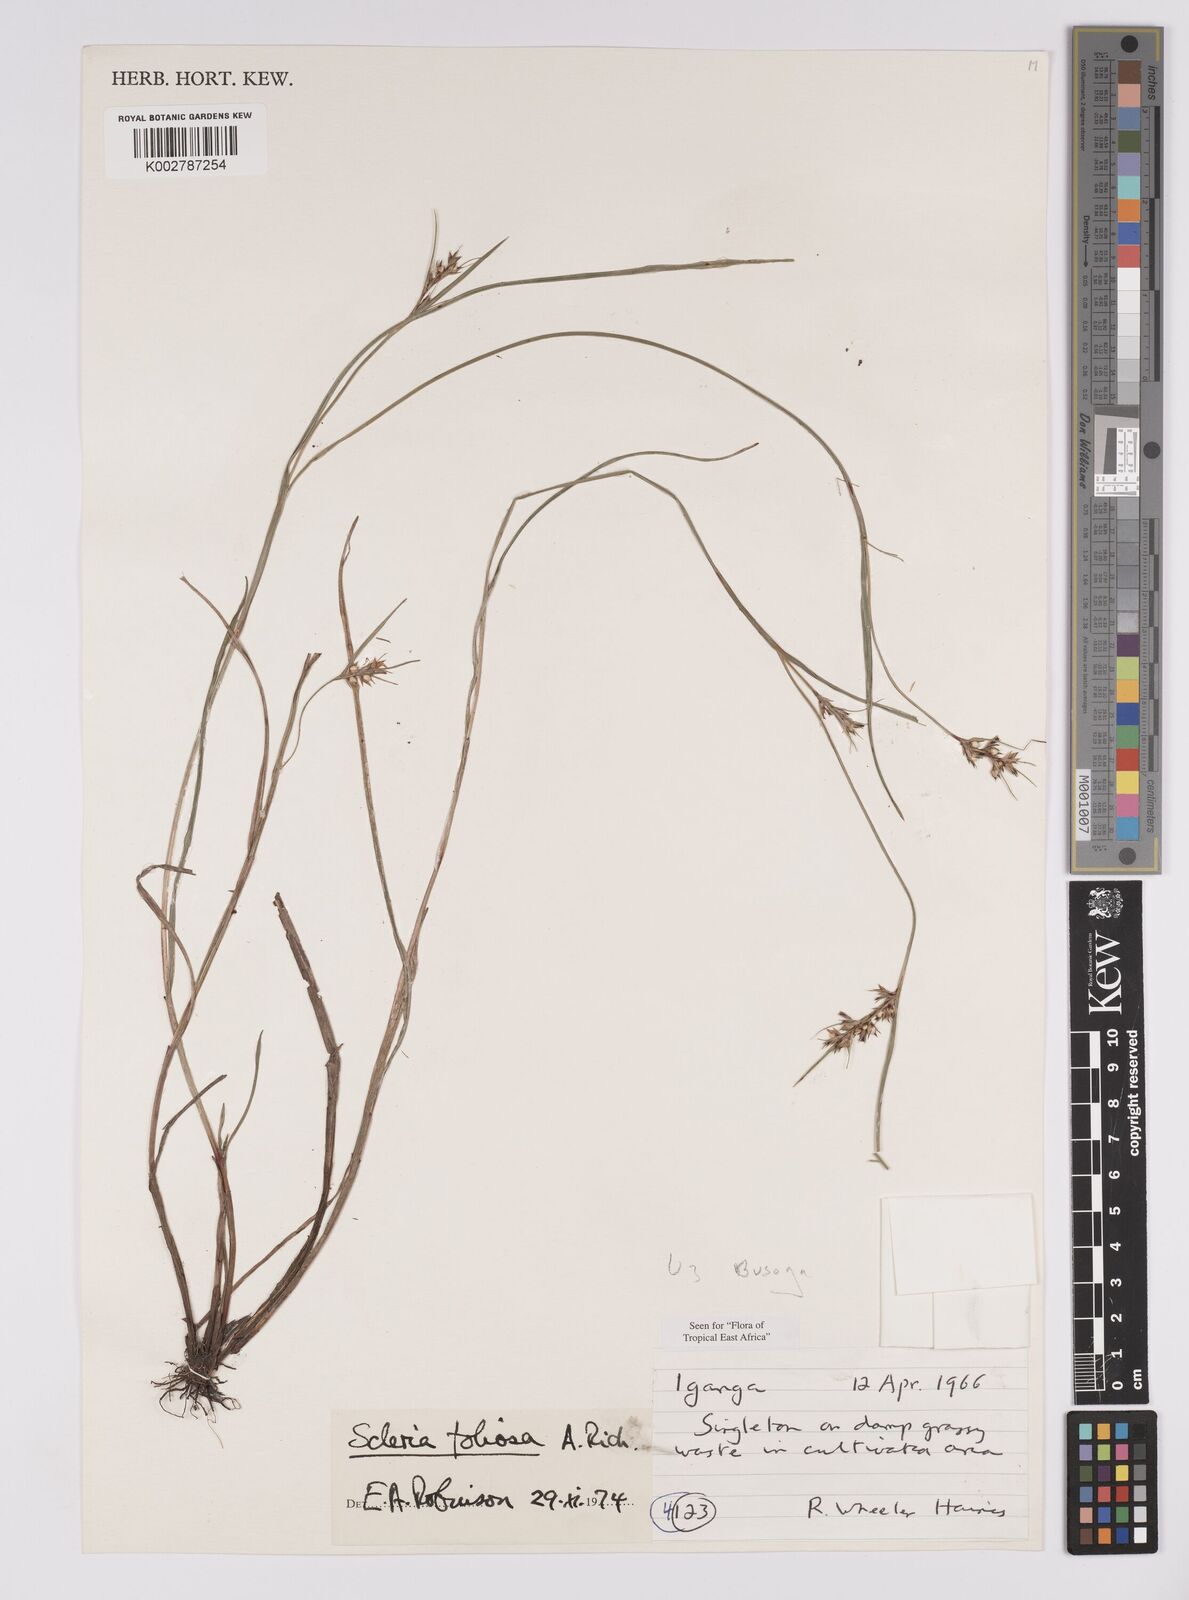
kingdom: Plantae
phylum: Tracheophyta
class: Liliopsida
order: Poales
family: Cyperaceae
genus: Scleria
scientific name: Scleria foliosa
